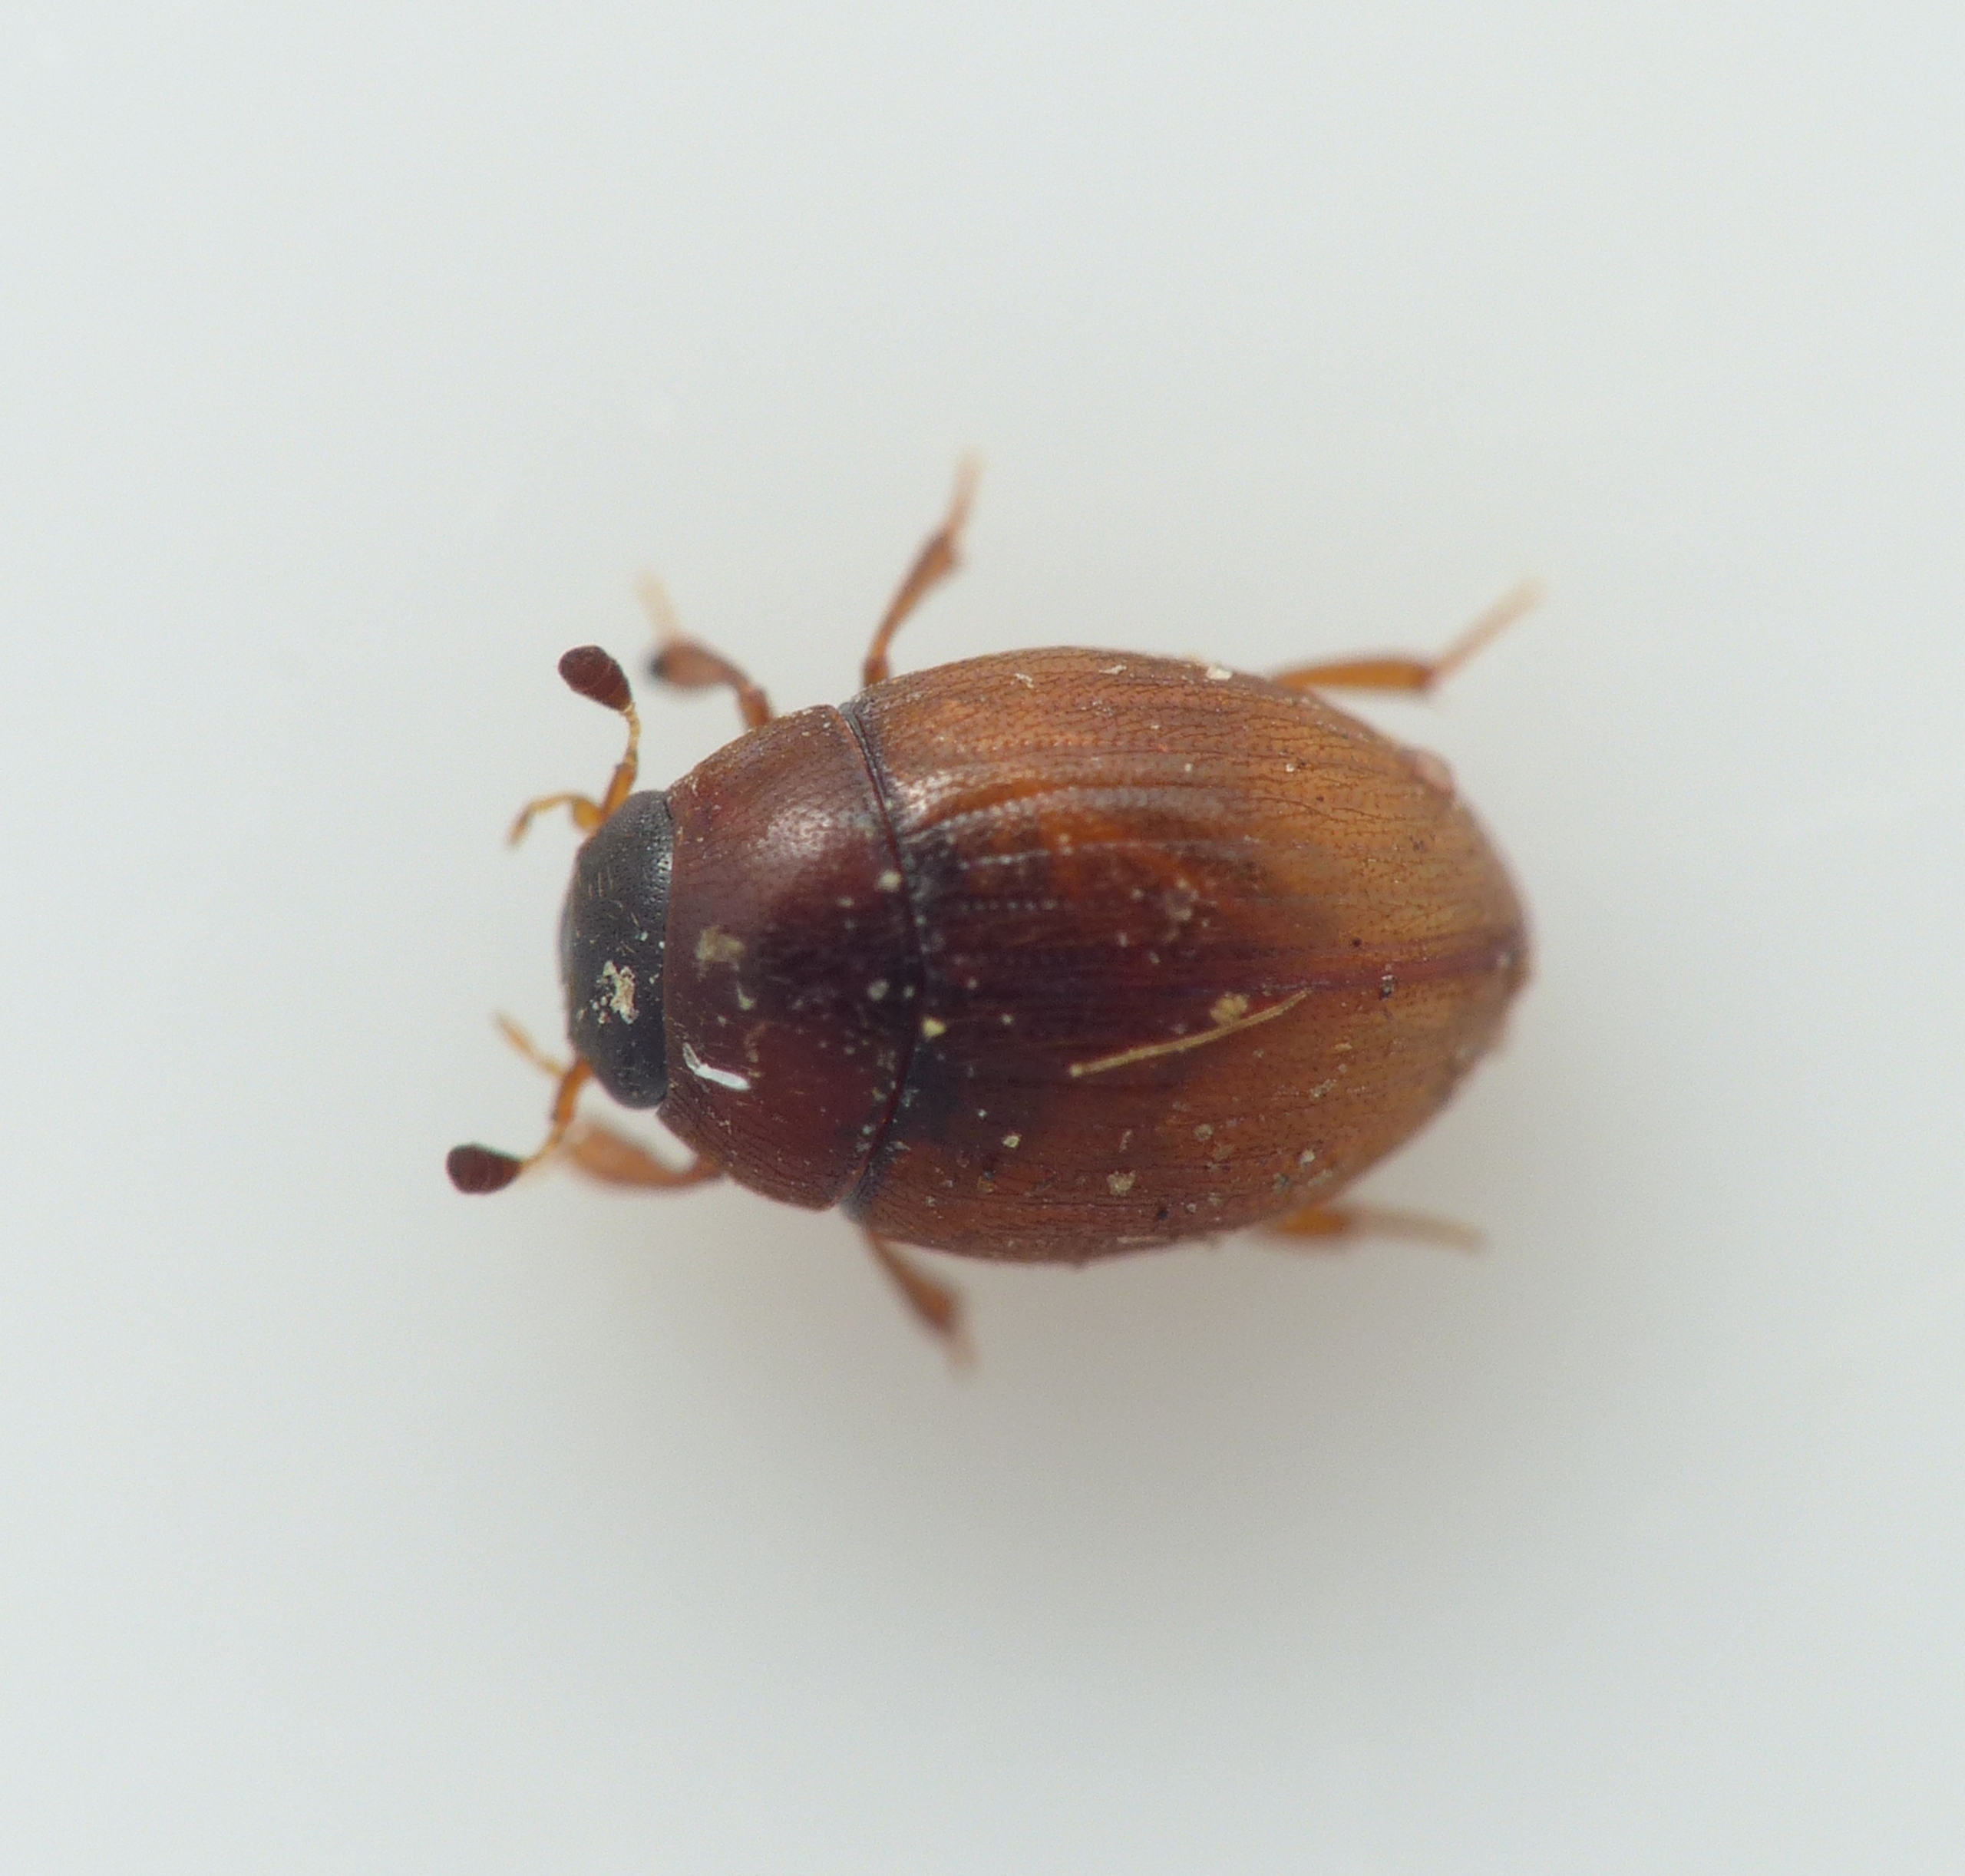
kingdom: Animalia
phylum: Arthropoda
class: Insecta
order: Coleoptera
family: Hydrophilidae
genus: Cryptopleurum
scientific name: Cryptopleurum subtile
